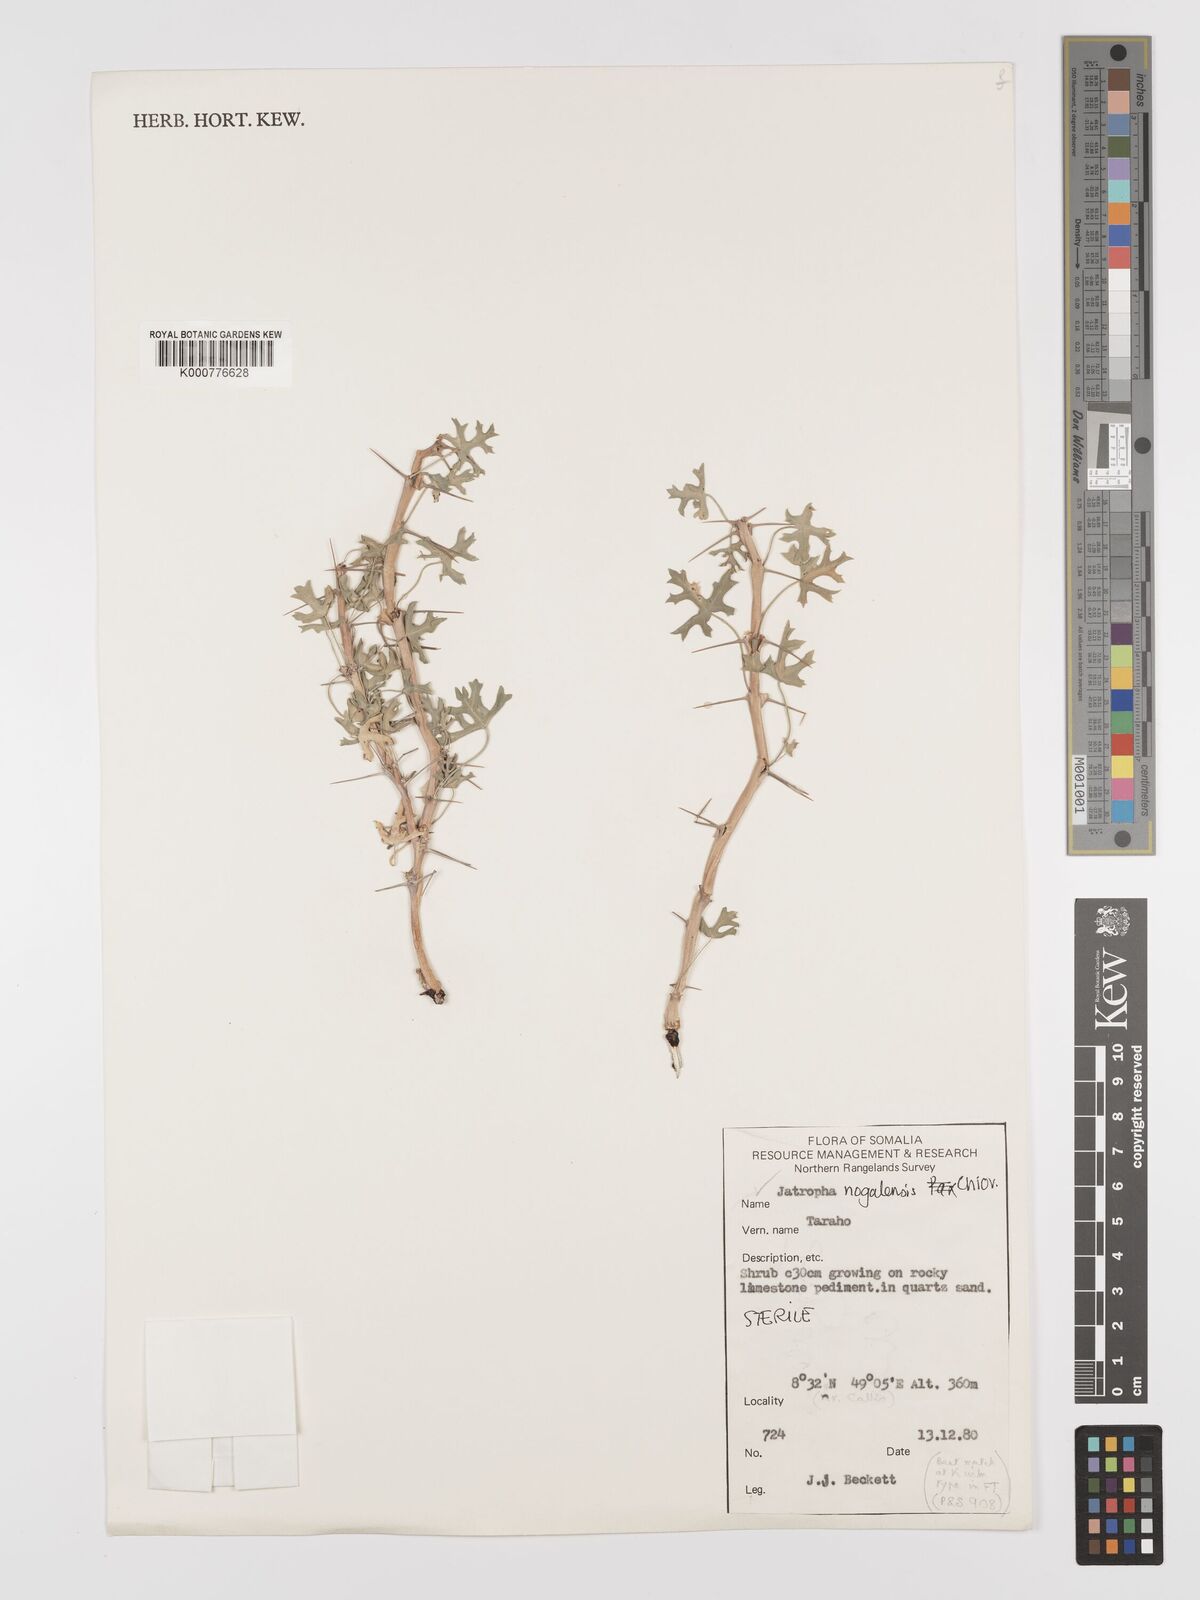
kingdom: Plantae
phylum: Tracheophyta
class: Magnoliopsida
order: Malpighiales
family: Euphorbiaceae
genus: Jatropha
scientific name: Jatropha nogalensis
